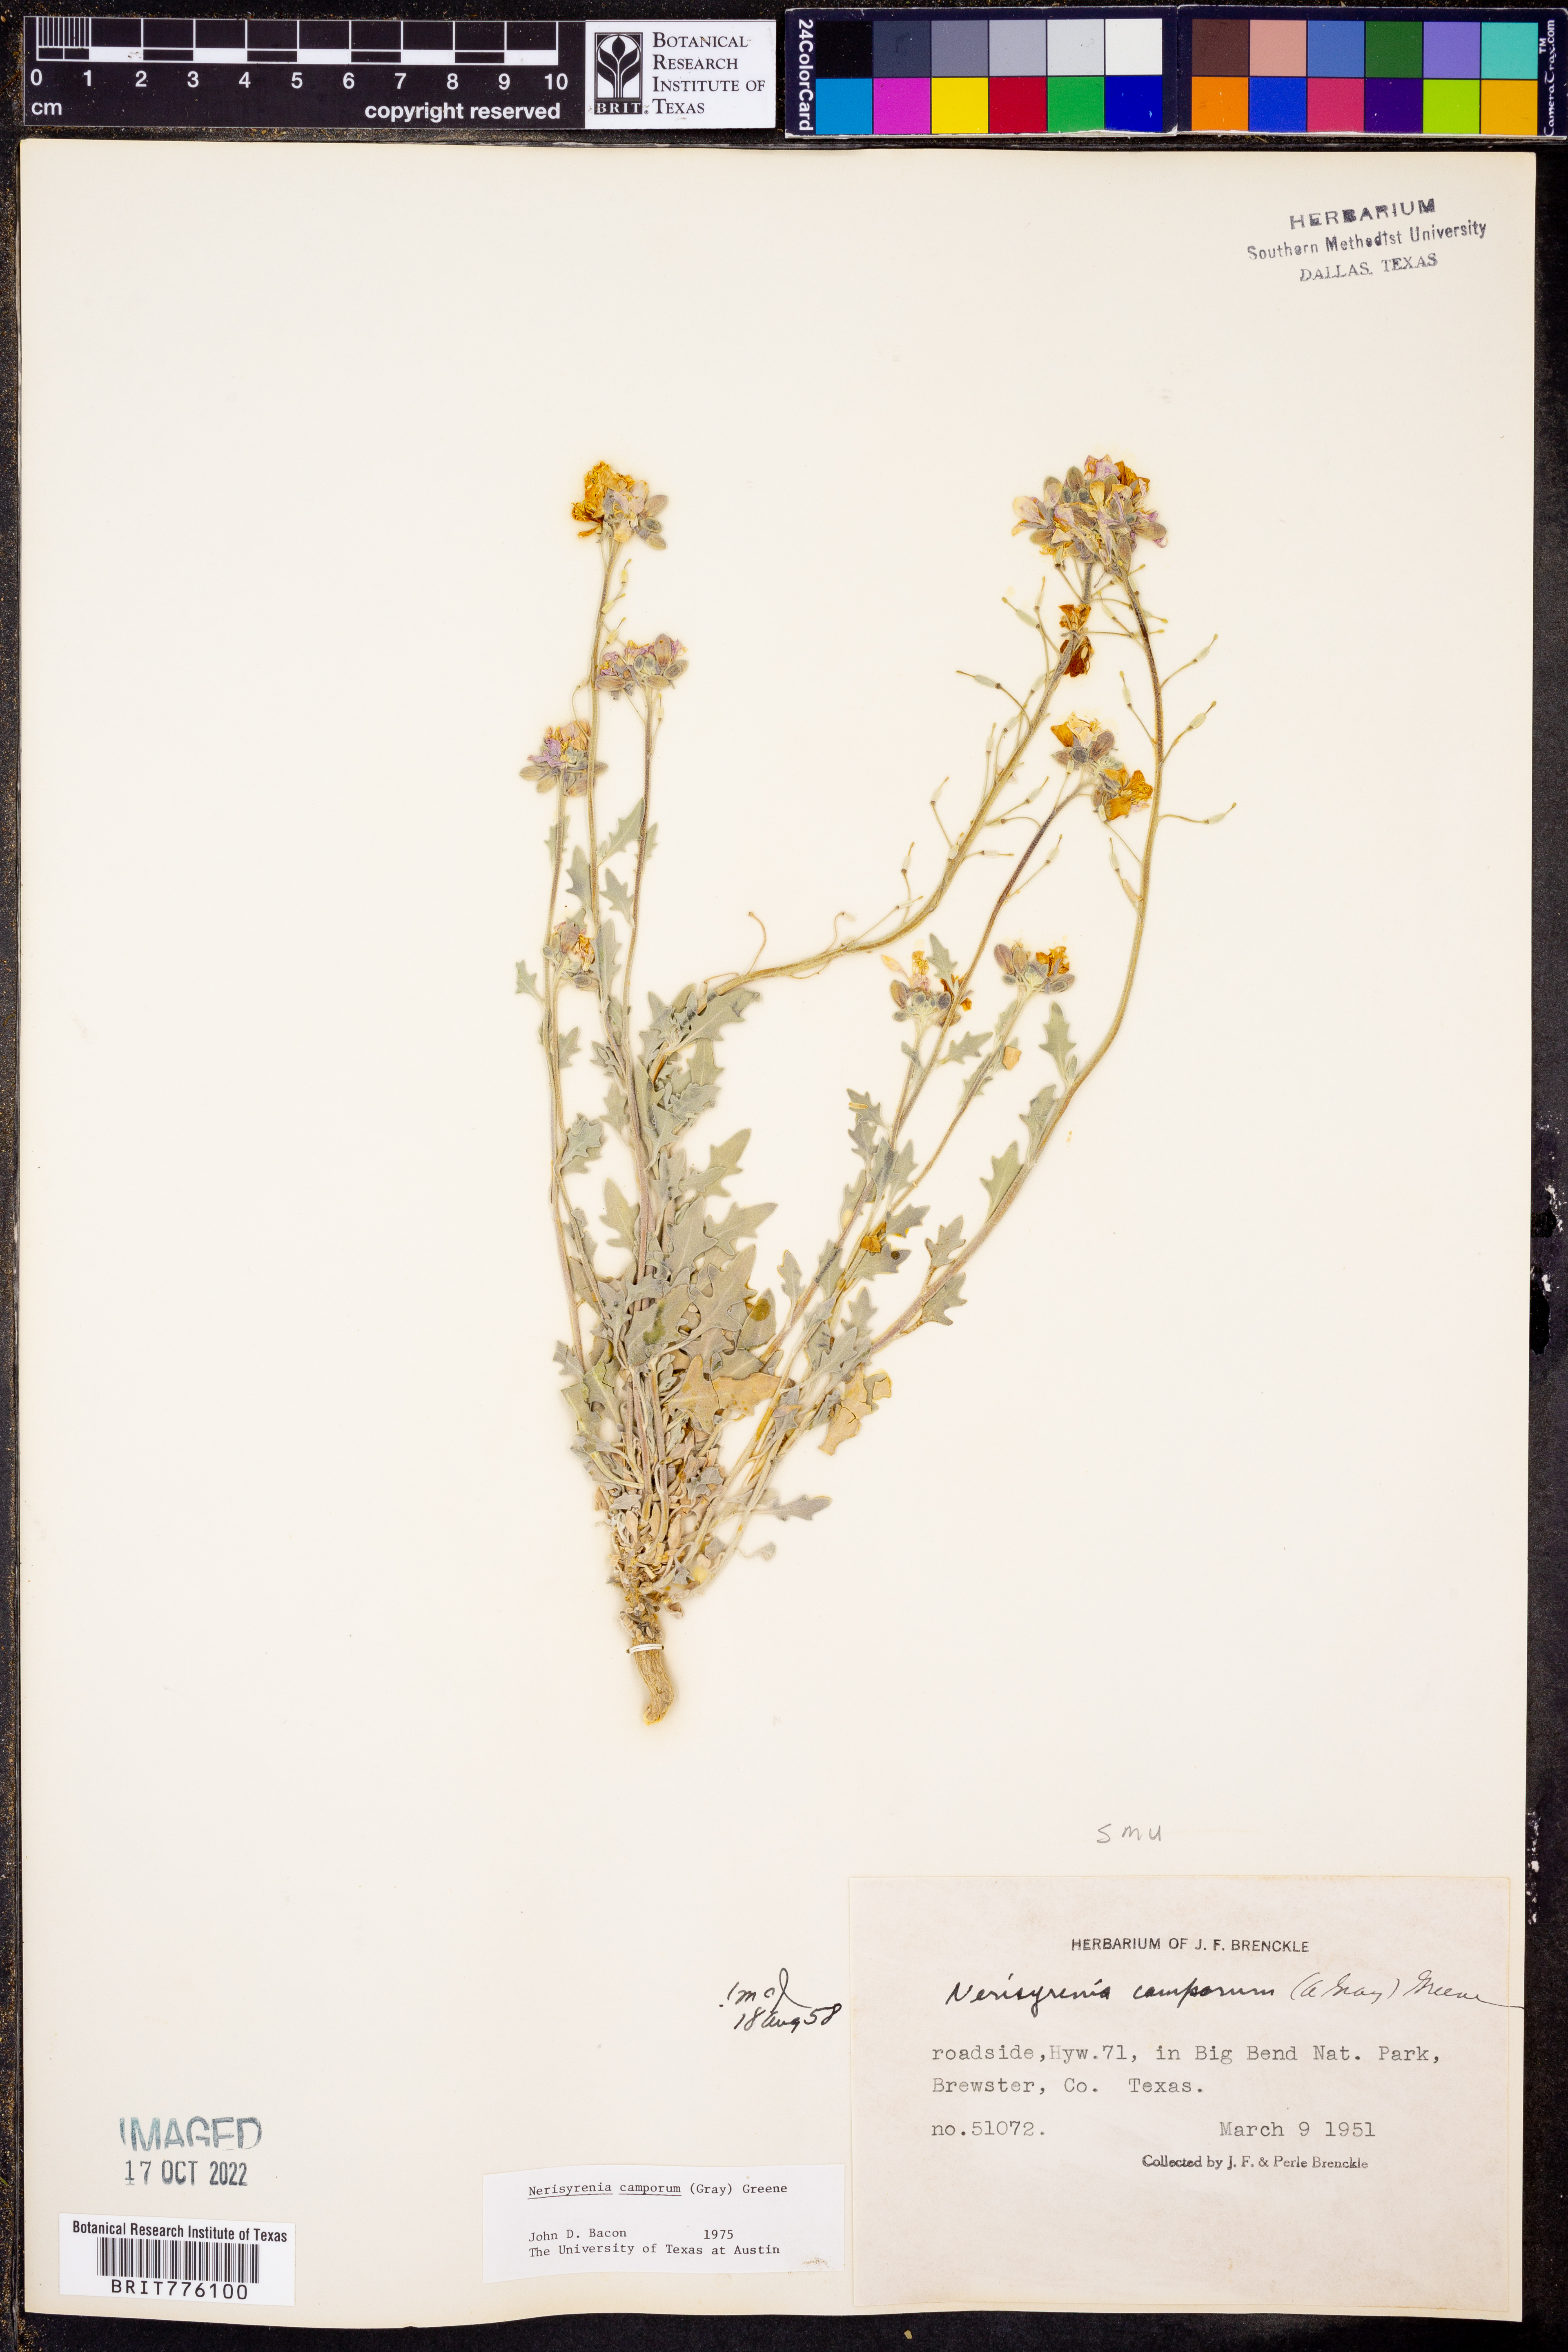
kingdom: Plantae
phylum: Tracheophyta
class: Magnoliopsida
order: Brassicales
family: Brassicaceae
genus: Nerisyrenia
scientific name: Nerisyrenia camporum
